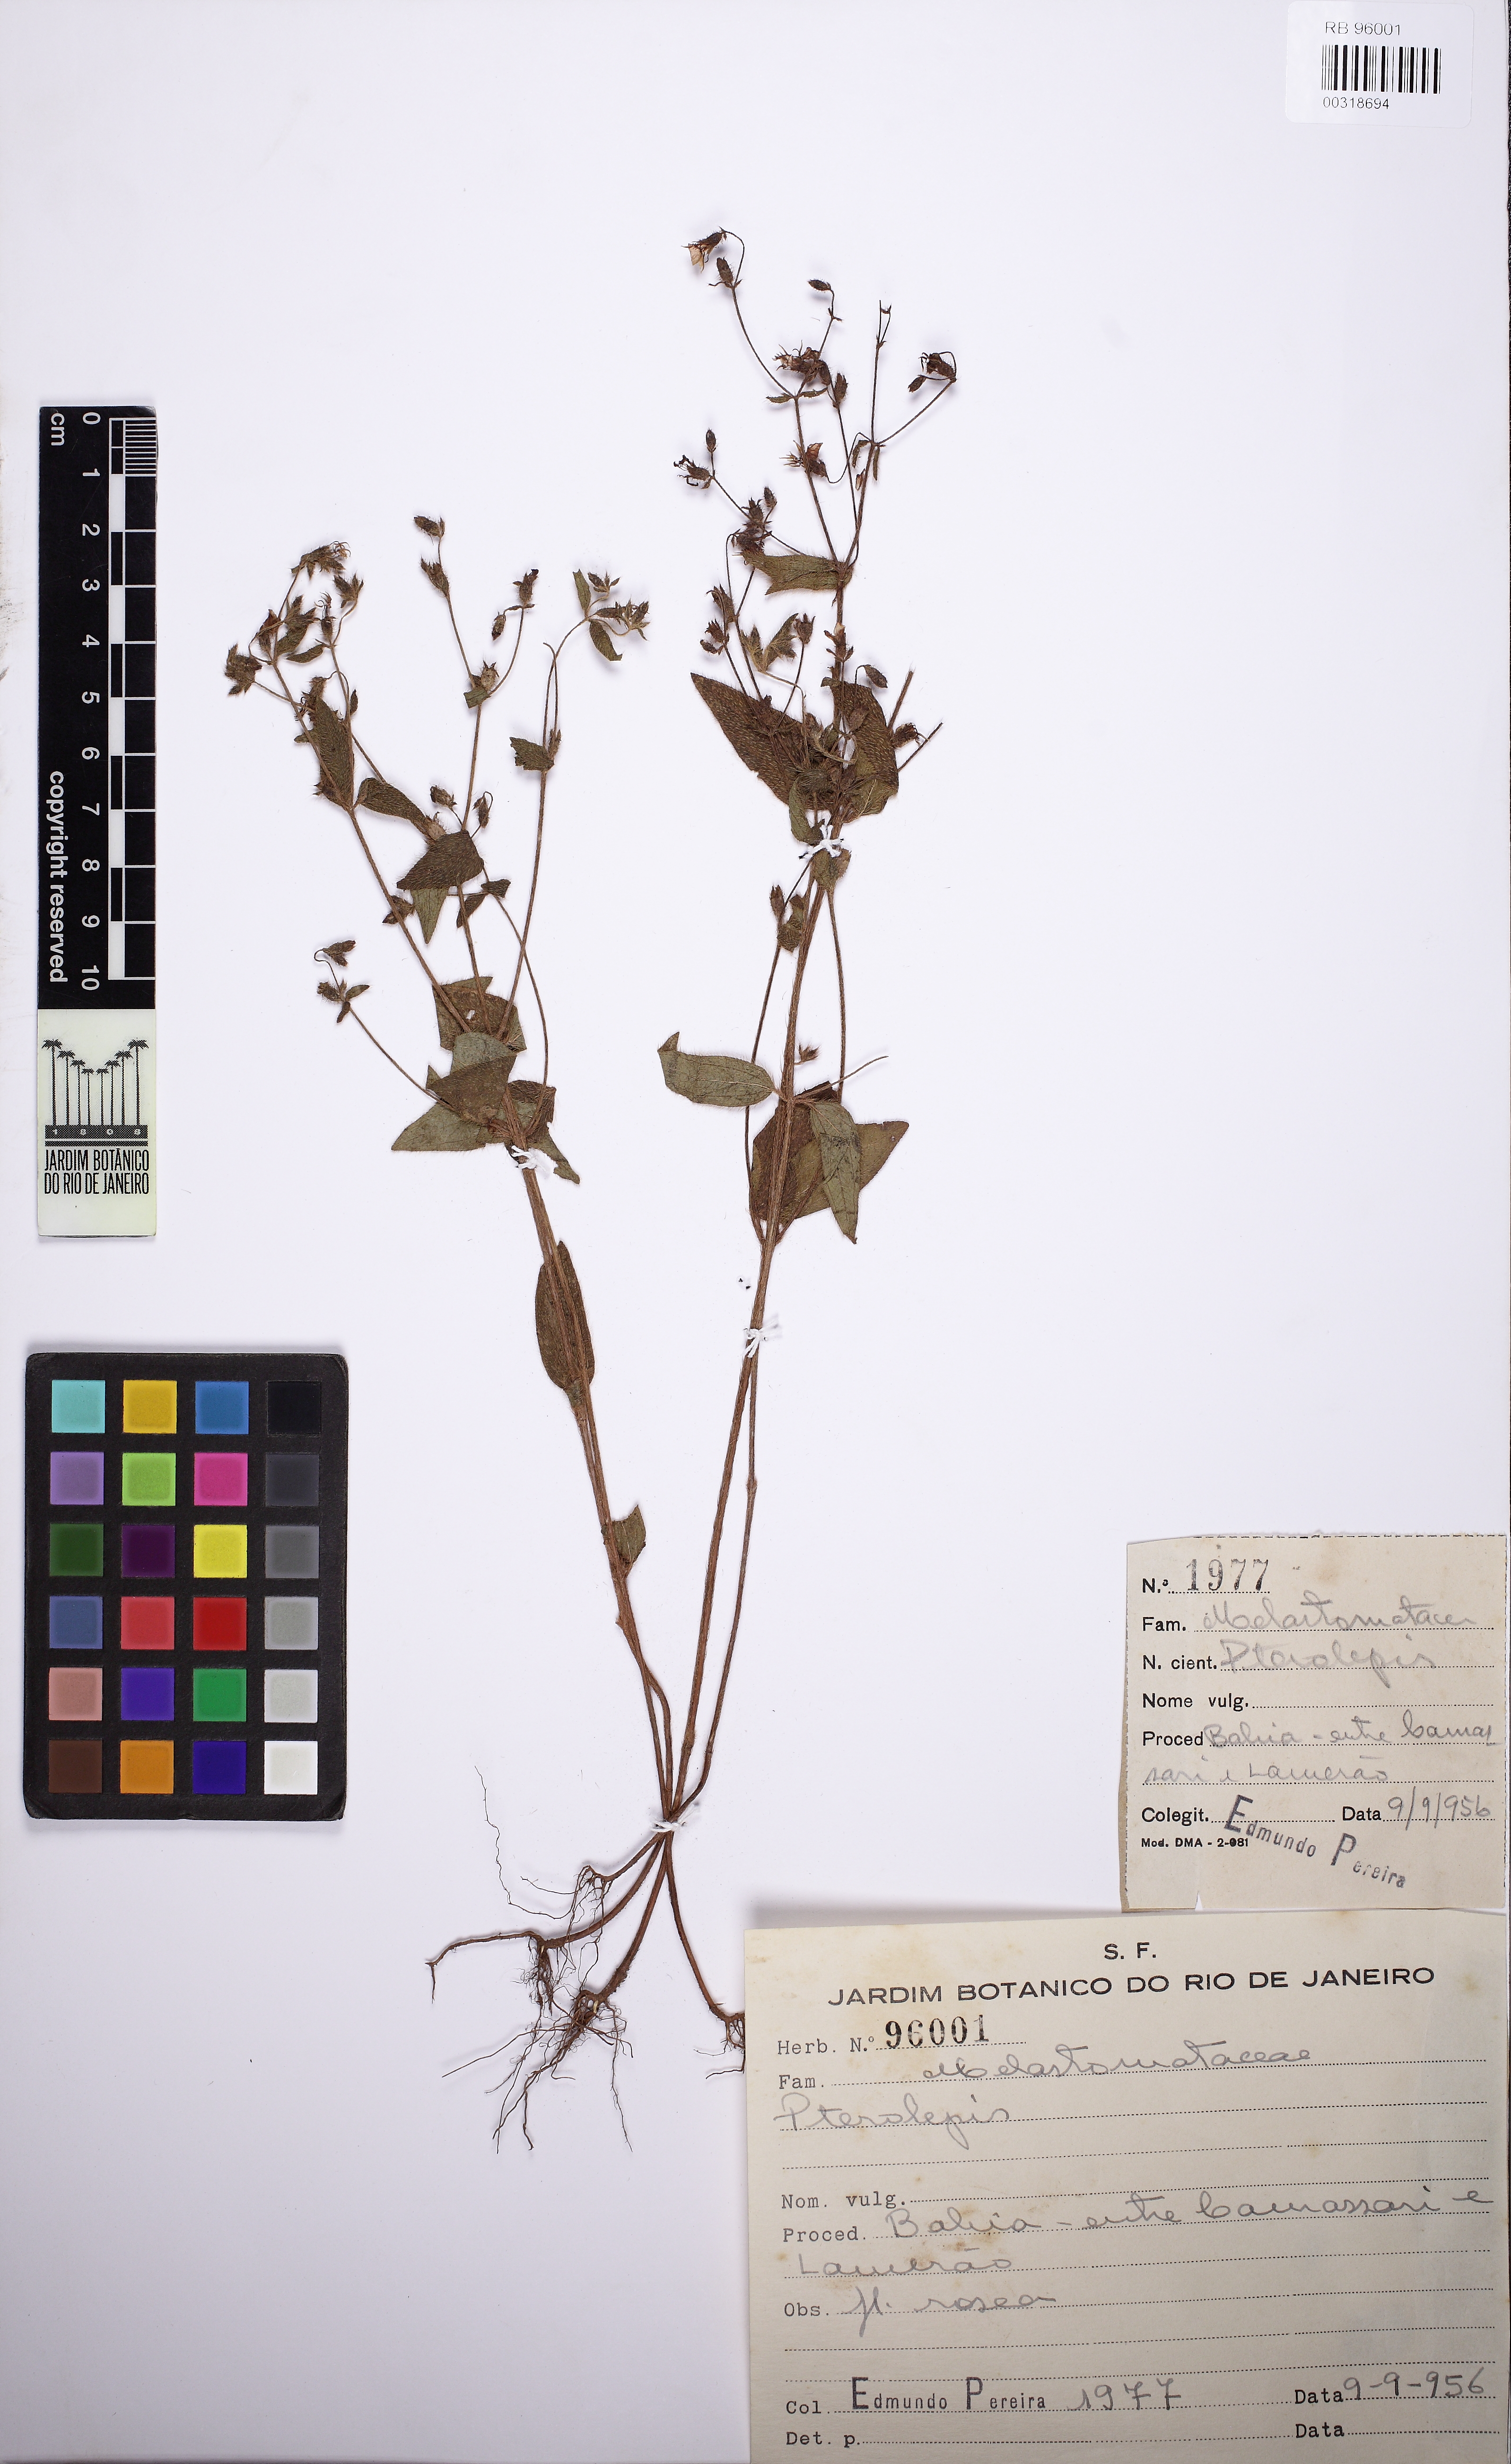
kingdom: Plantae
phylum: Tracheophyta
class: Magnoliopsida
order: Myrtales
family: Melastomataceae
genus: Pterolepis
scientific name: Pterolepis
